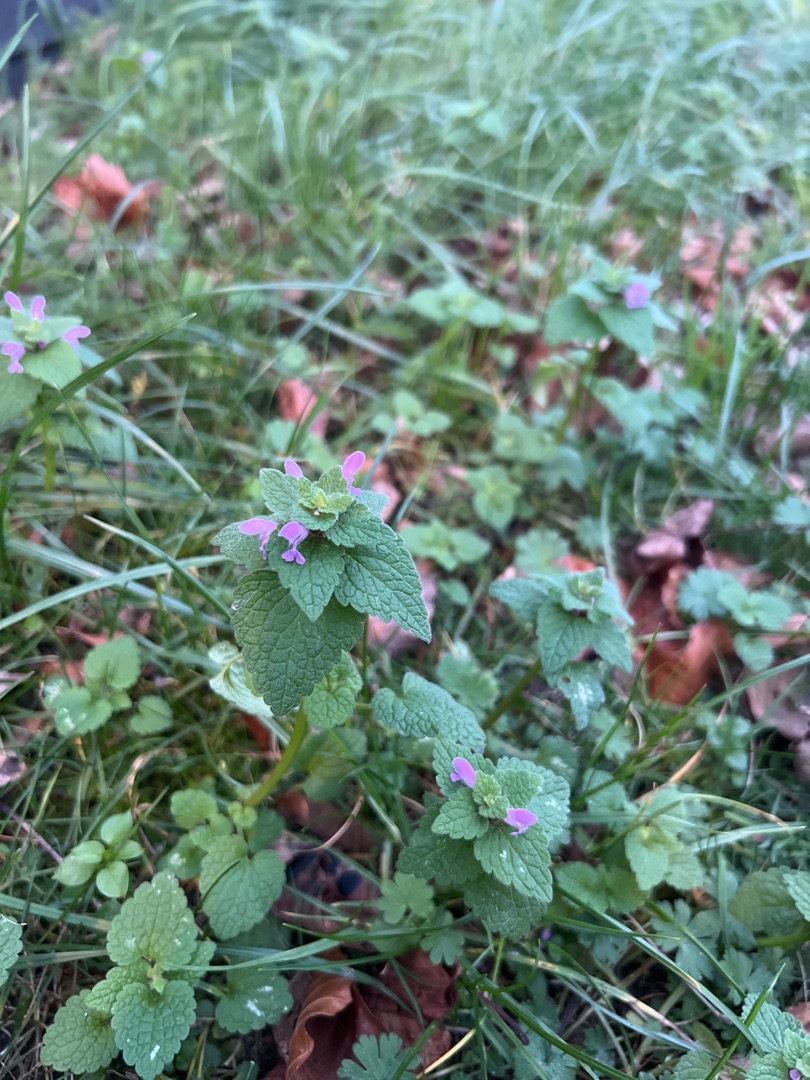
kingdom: Plantae
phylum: Tracheophyta
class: Magnoliopsida
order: Lamiales
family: Lamiaceae
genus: Lamium
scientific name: Lamium purpureum
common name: Rød tvetand
